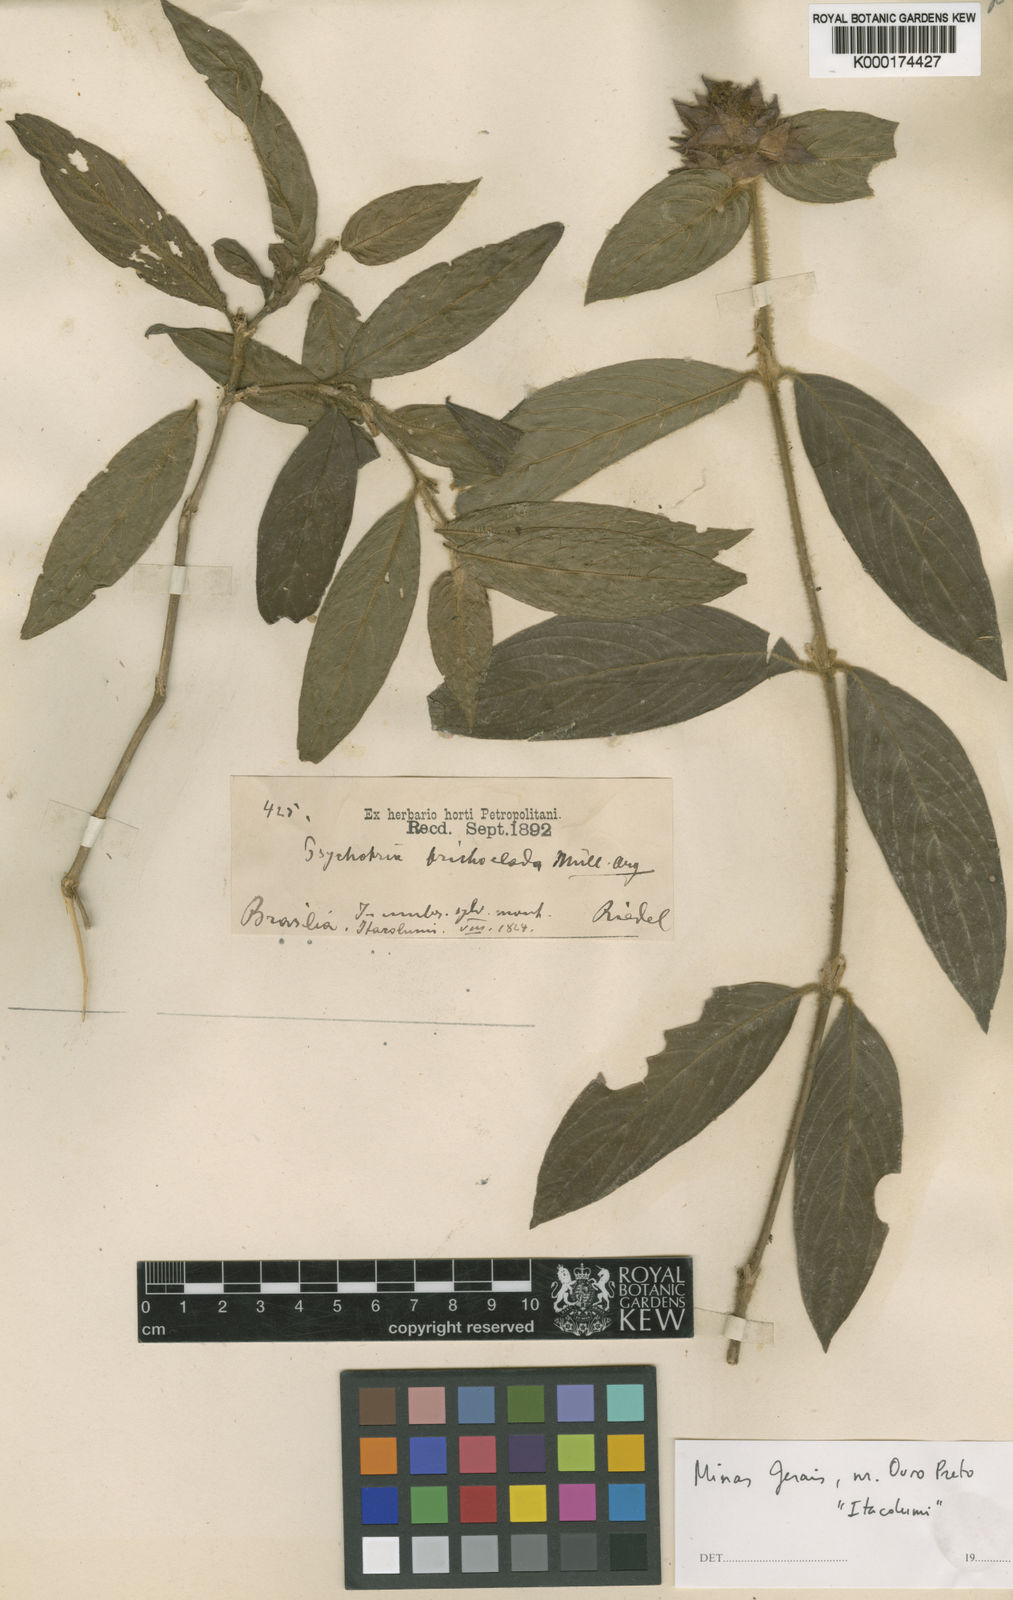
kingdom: Plantae
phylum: Tracheophyta
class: Magnoliopsida
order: Gentianales
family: Rubiaceae
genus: Psychotria
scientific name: Psychotria
